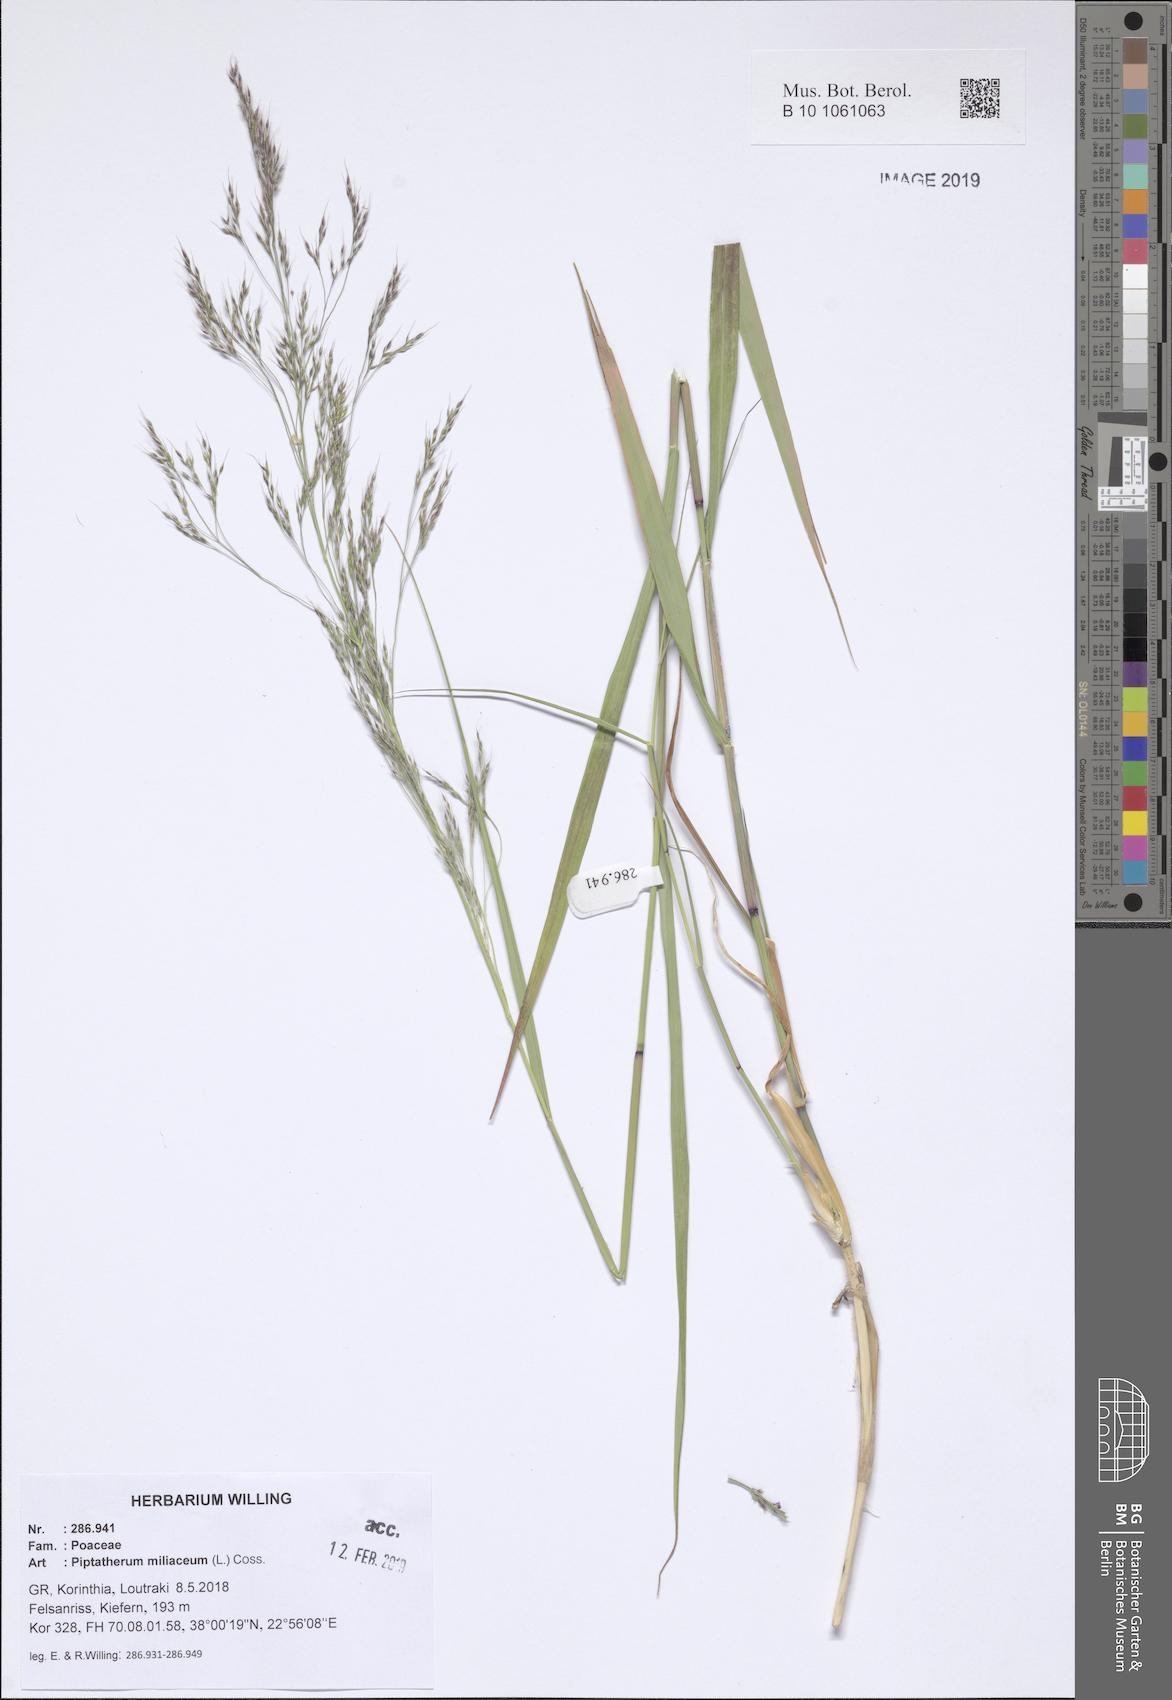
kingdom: Plantae
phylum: Tracheophyta
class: Liliopsida
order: Poales
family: Poaceae
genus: Oloptum
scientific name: Oloptum miliaceum
